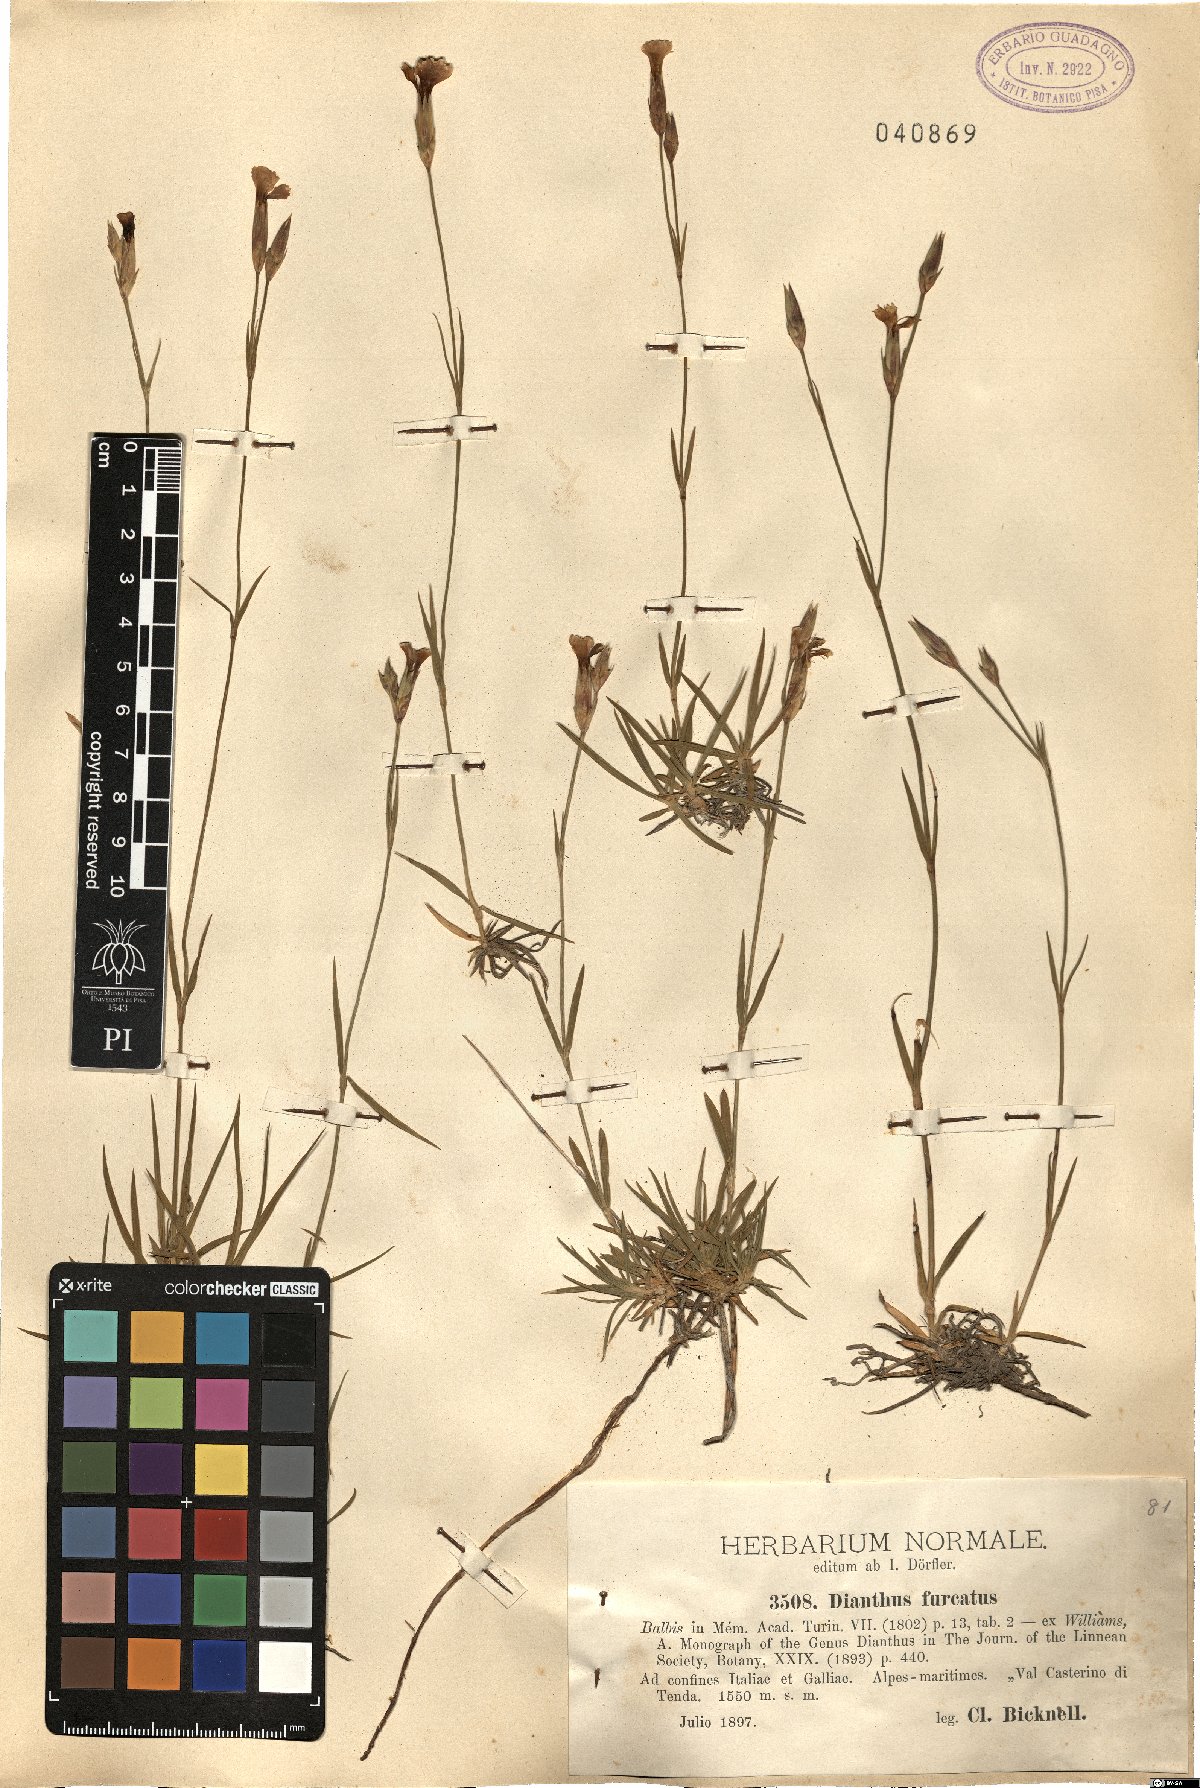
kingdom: Plantae
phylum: Tracheophyta
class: Magnoliopsida
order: Caryophyllales
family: Caryophyllaceae
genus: Dianthus
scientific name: Dianthus furcatus
